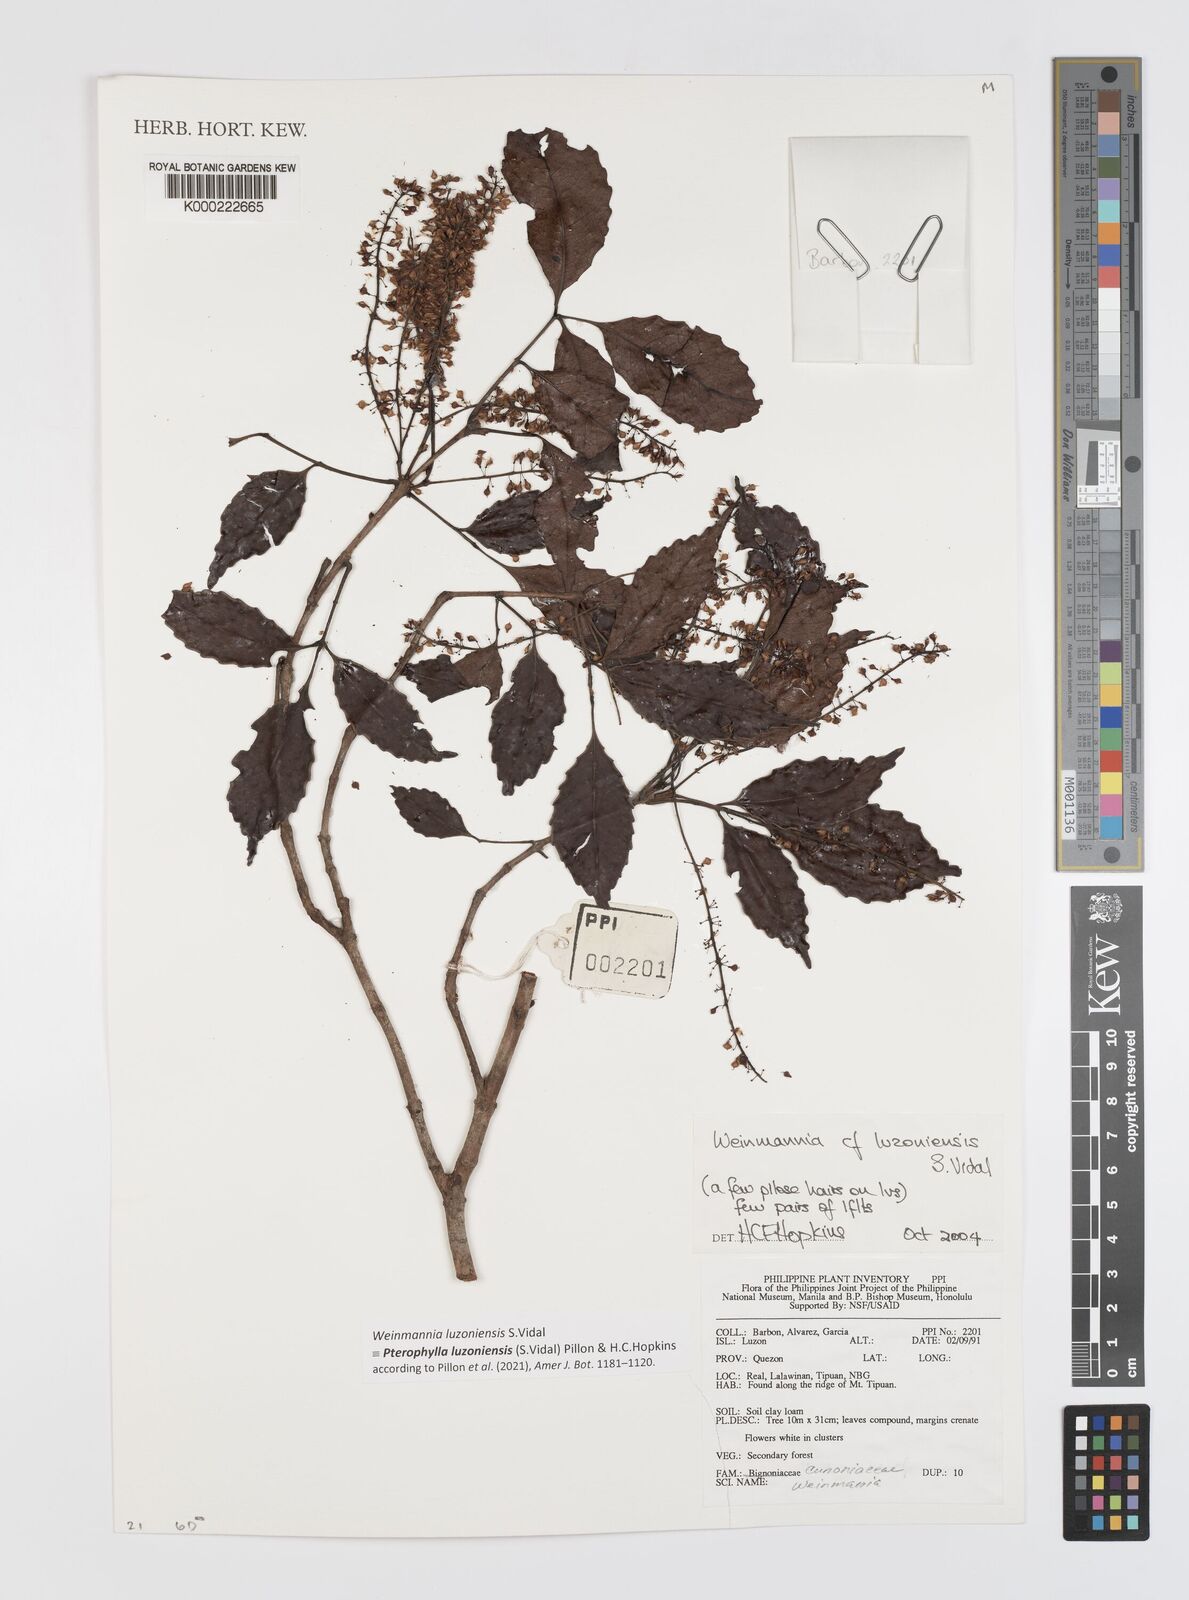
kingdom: Plantae
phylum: Tracheophyta
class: Magnoliopsida
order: Oxalidales
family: Cunoniaceae
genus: Pterophylla
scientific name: Pterophylla luzoniensis
